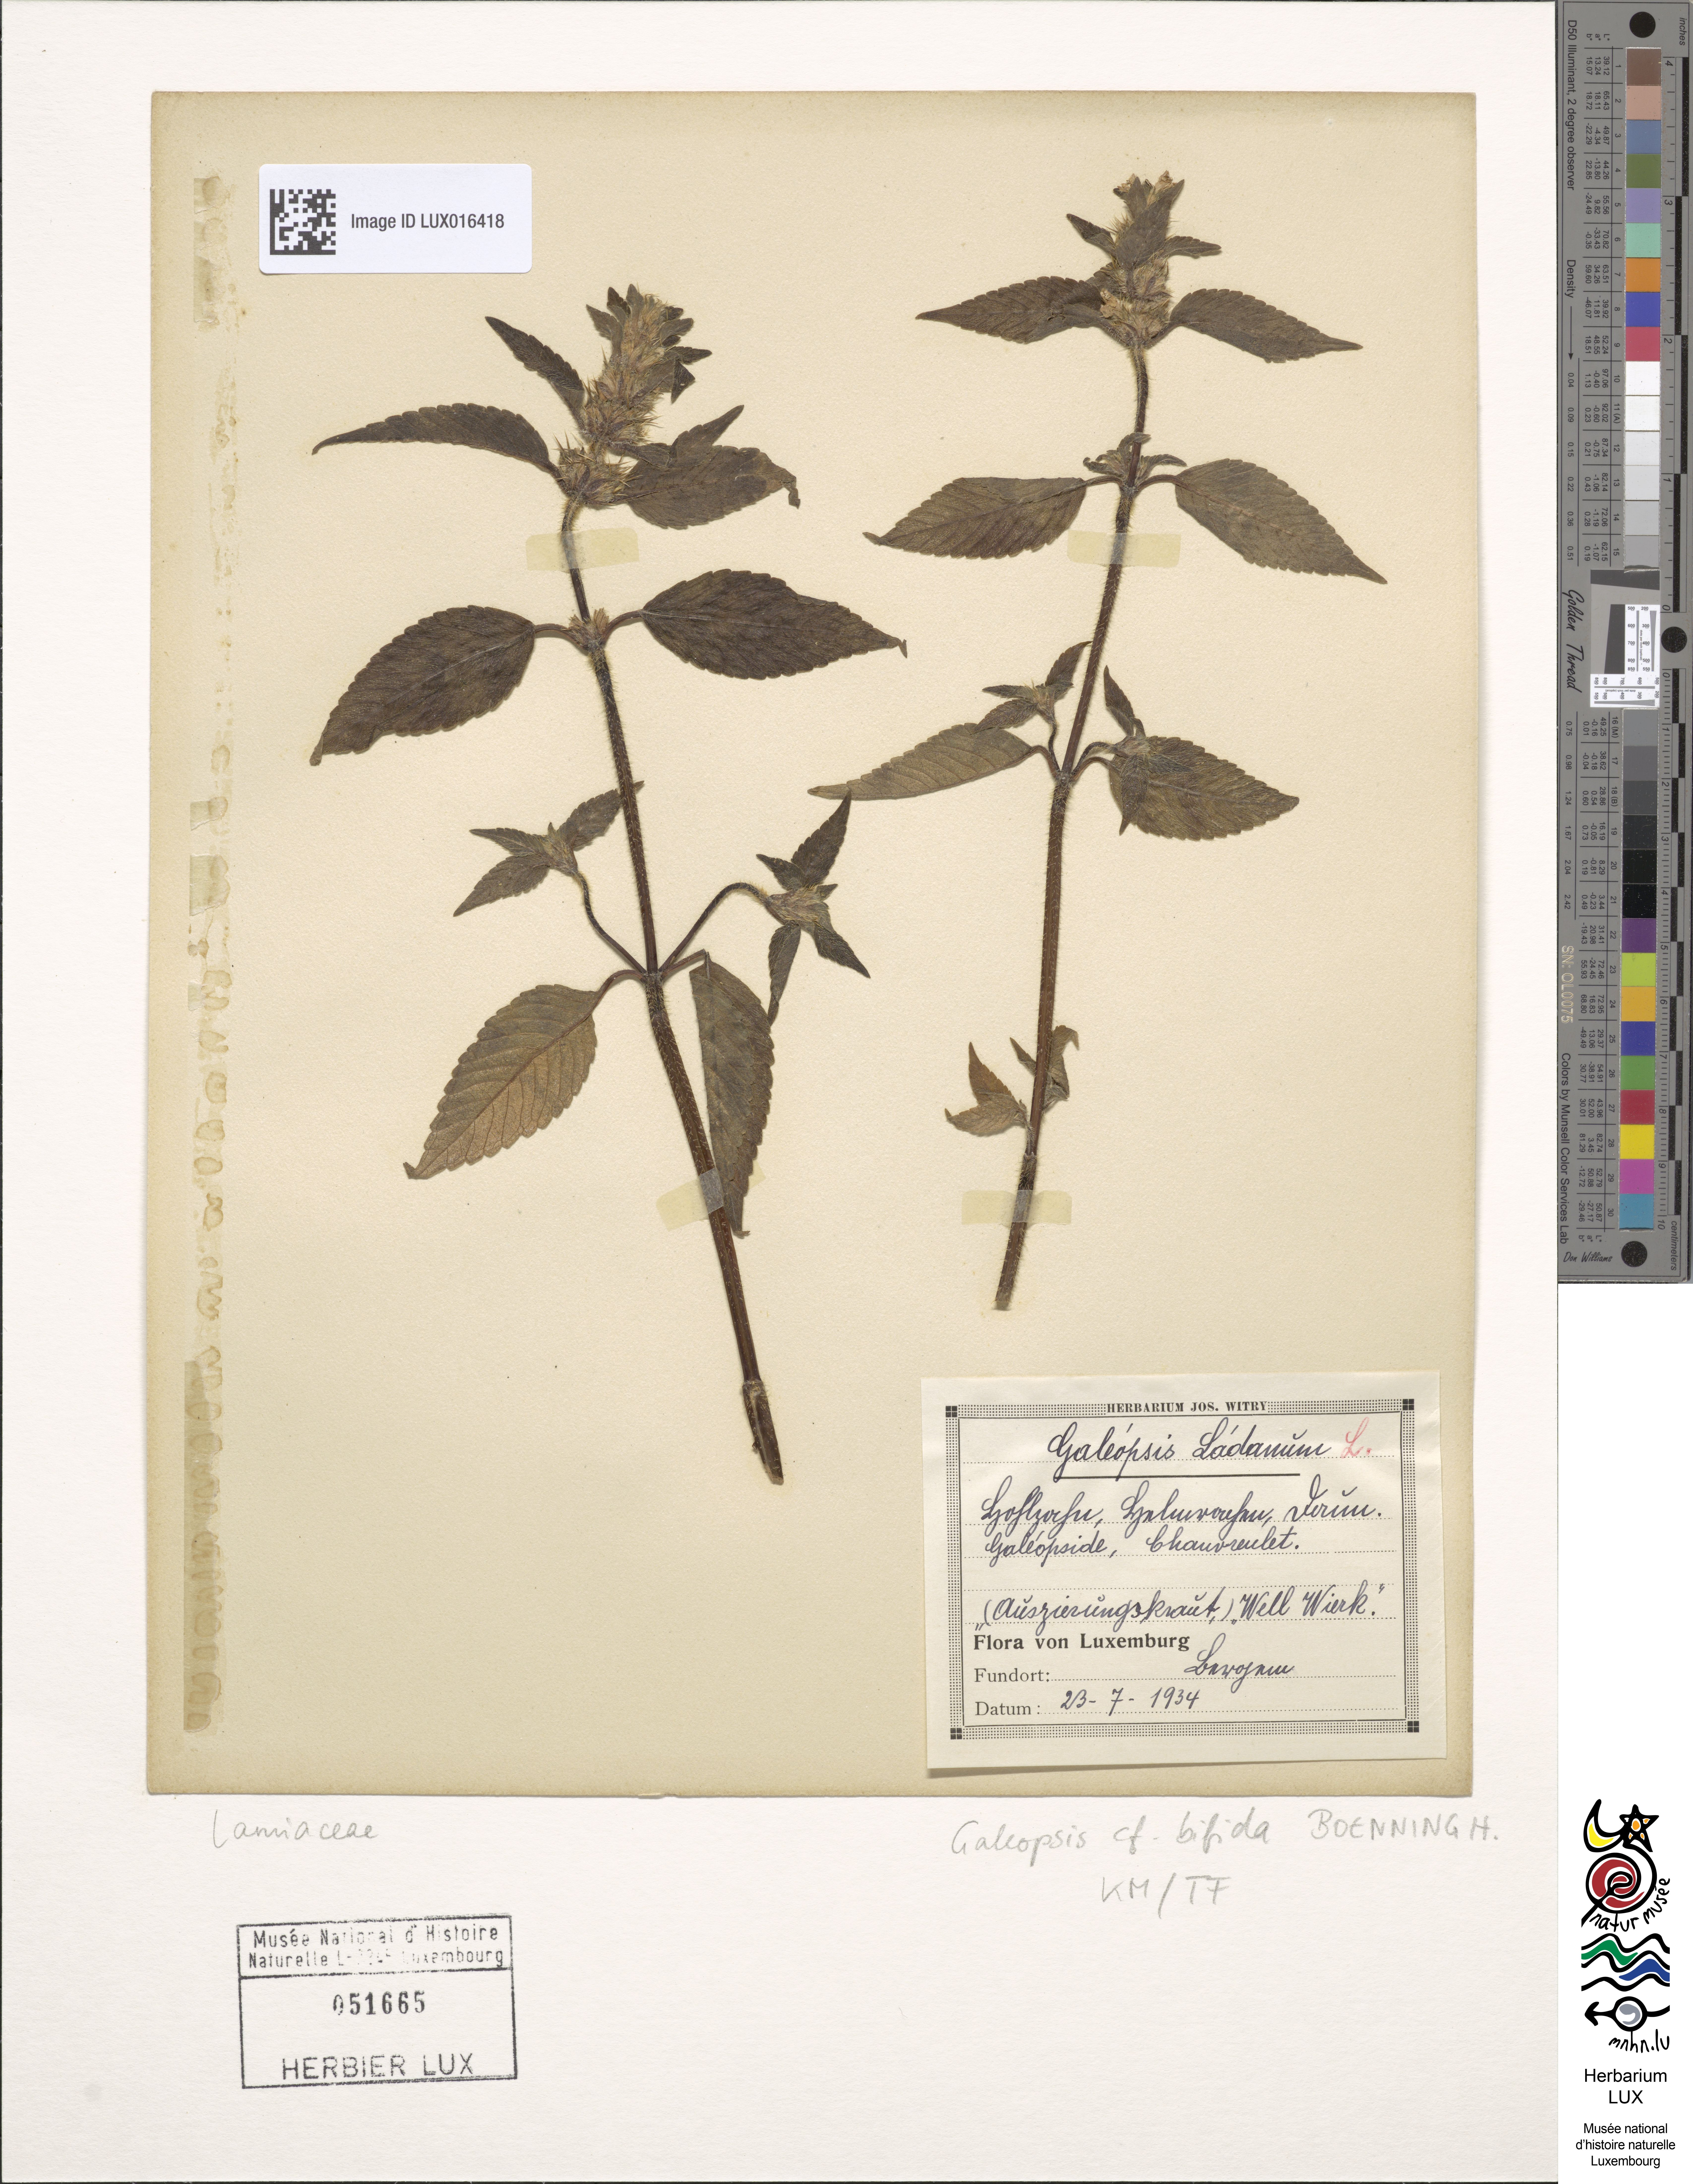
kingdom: Plantae
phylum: Tracheophyta
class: Magnoliopsida
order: Lamiales
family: Lamiaceae
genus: Galeopsis
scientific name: Galeopsis bifida
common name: Bifid hemp-nettle
